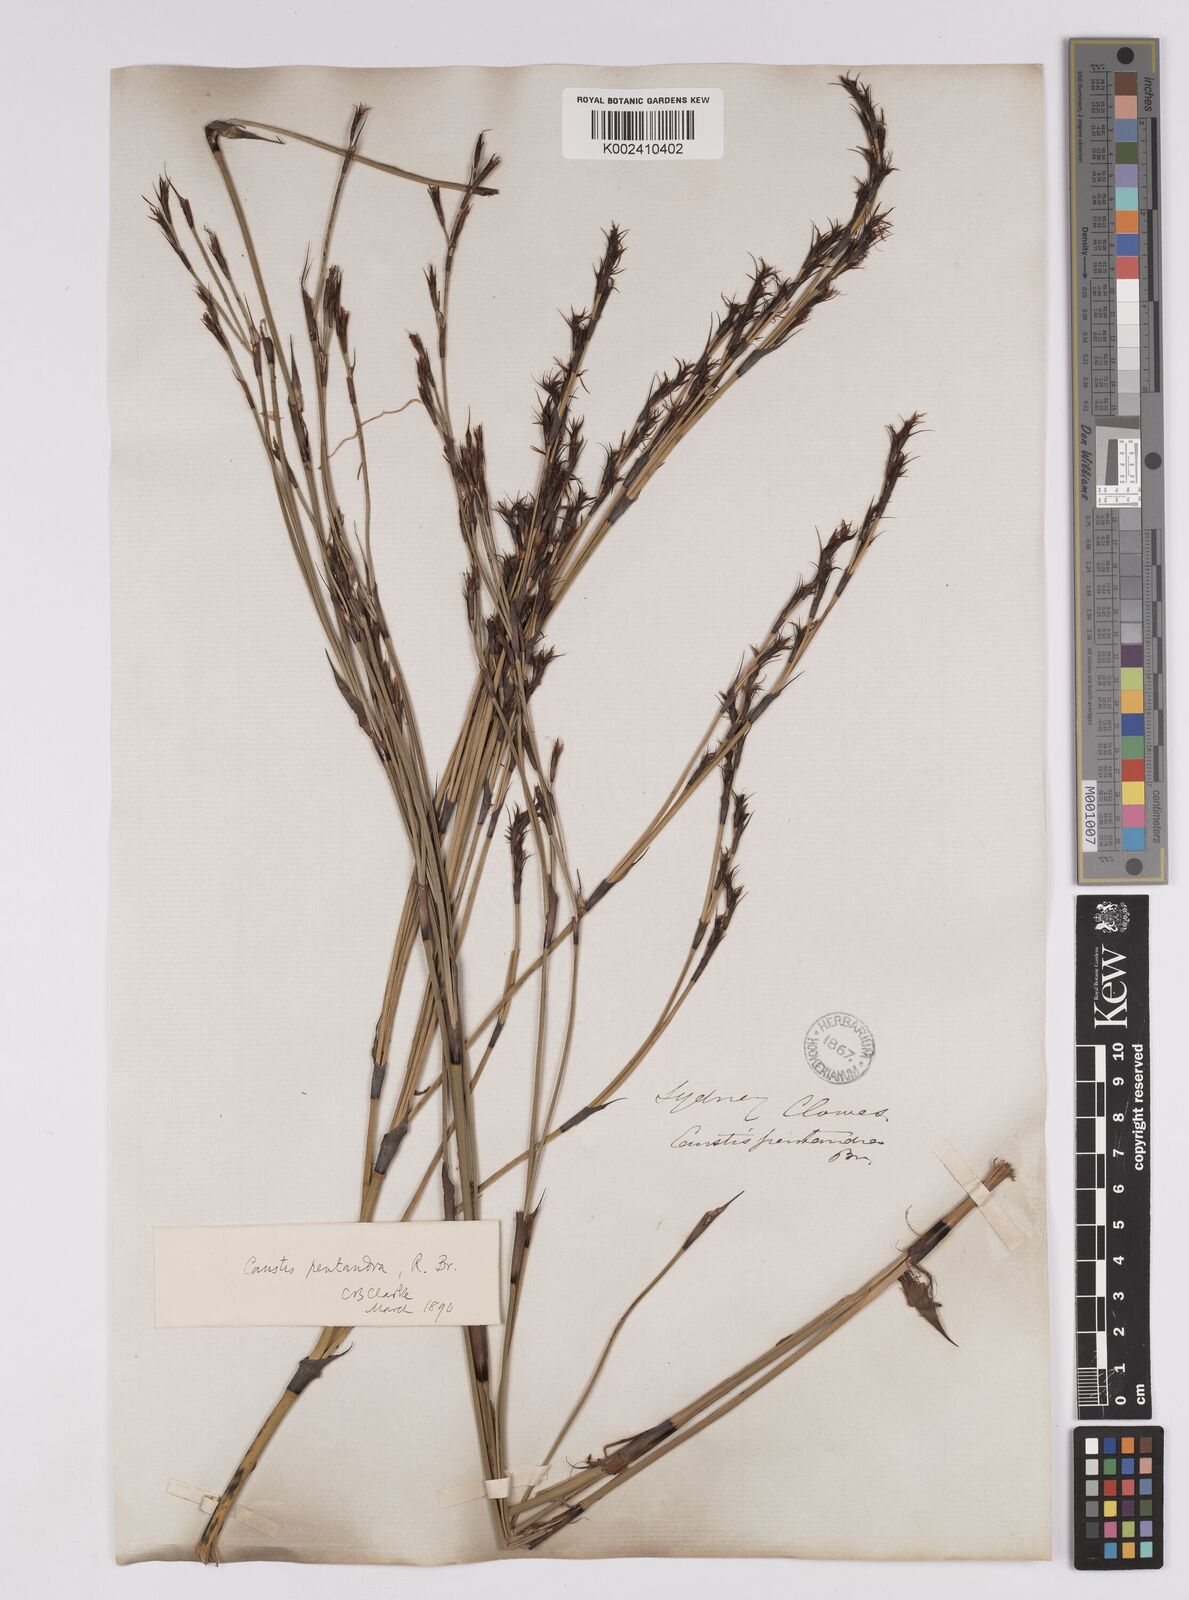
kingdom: Plantae
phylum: Tracheophyta
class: Liliopsida
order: Poales
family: Cyperaceae
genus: Caustis
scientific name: Caustis pentandra
